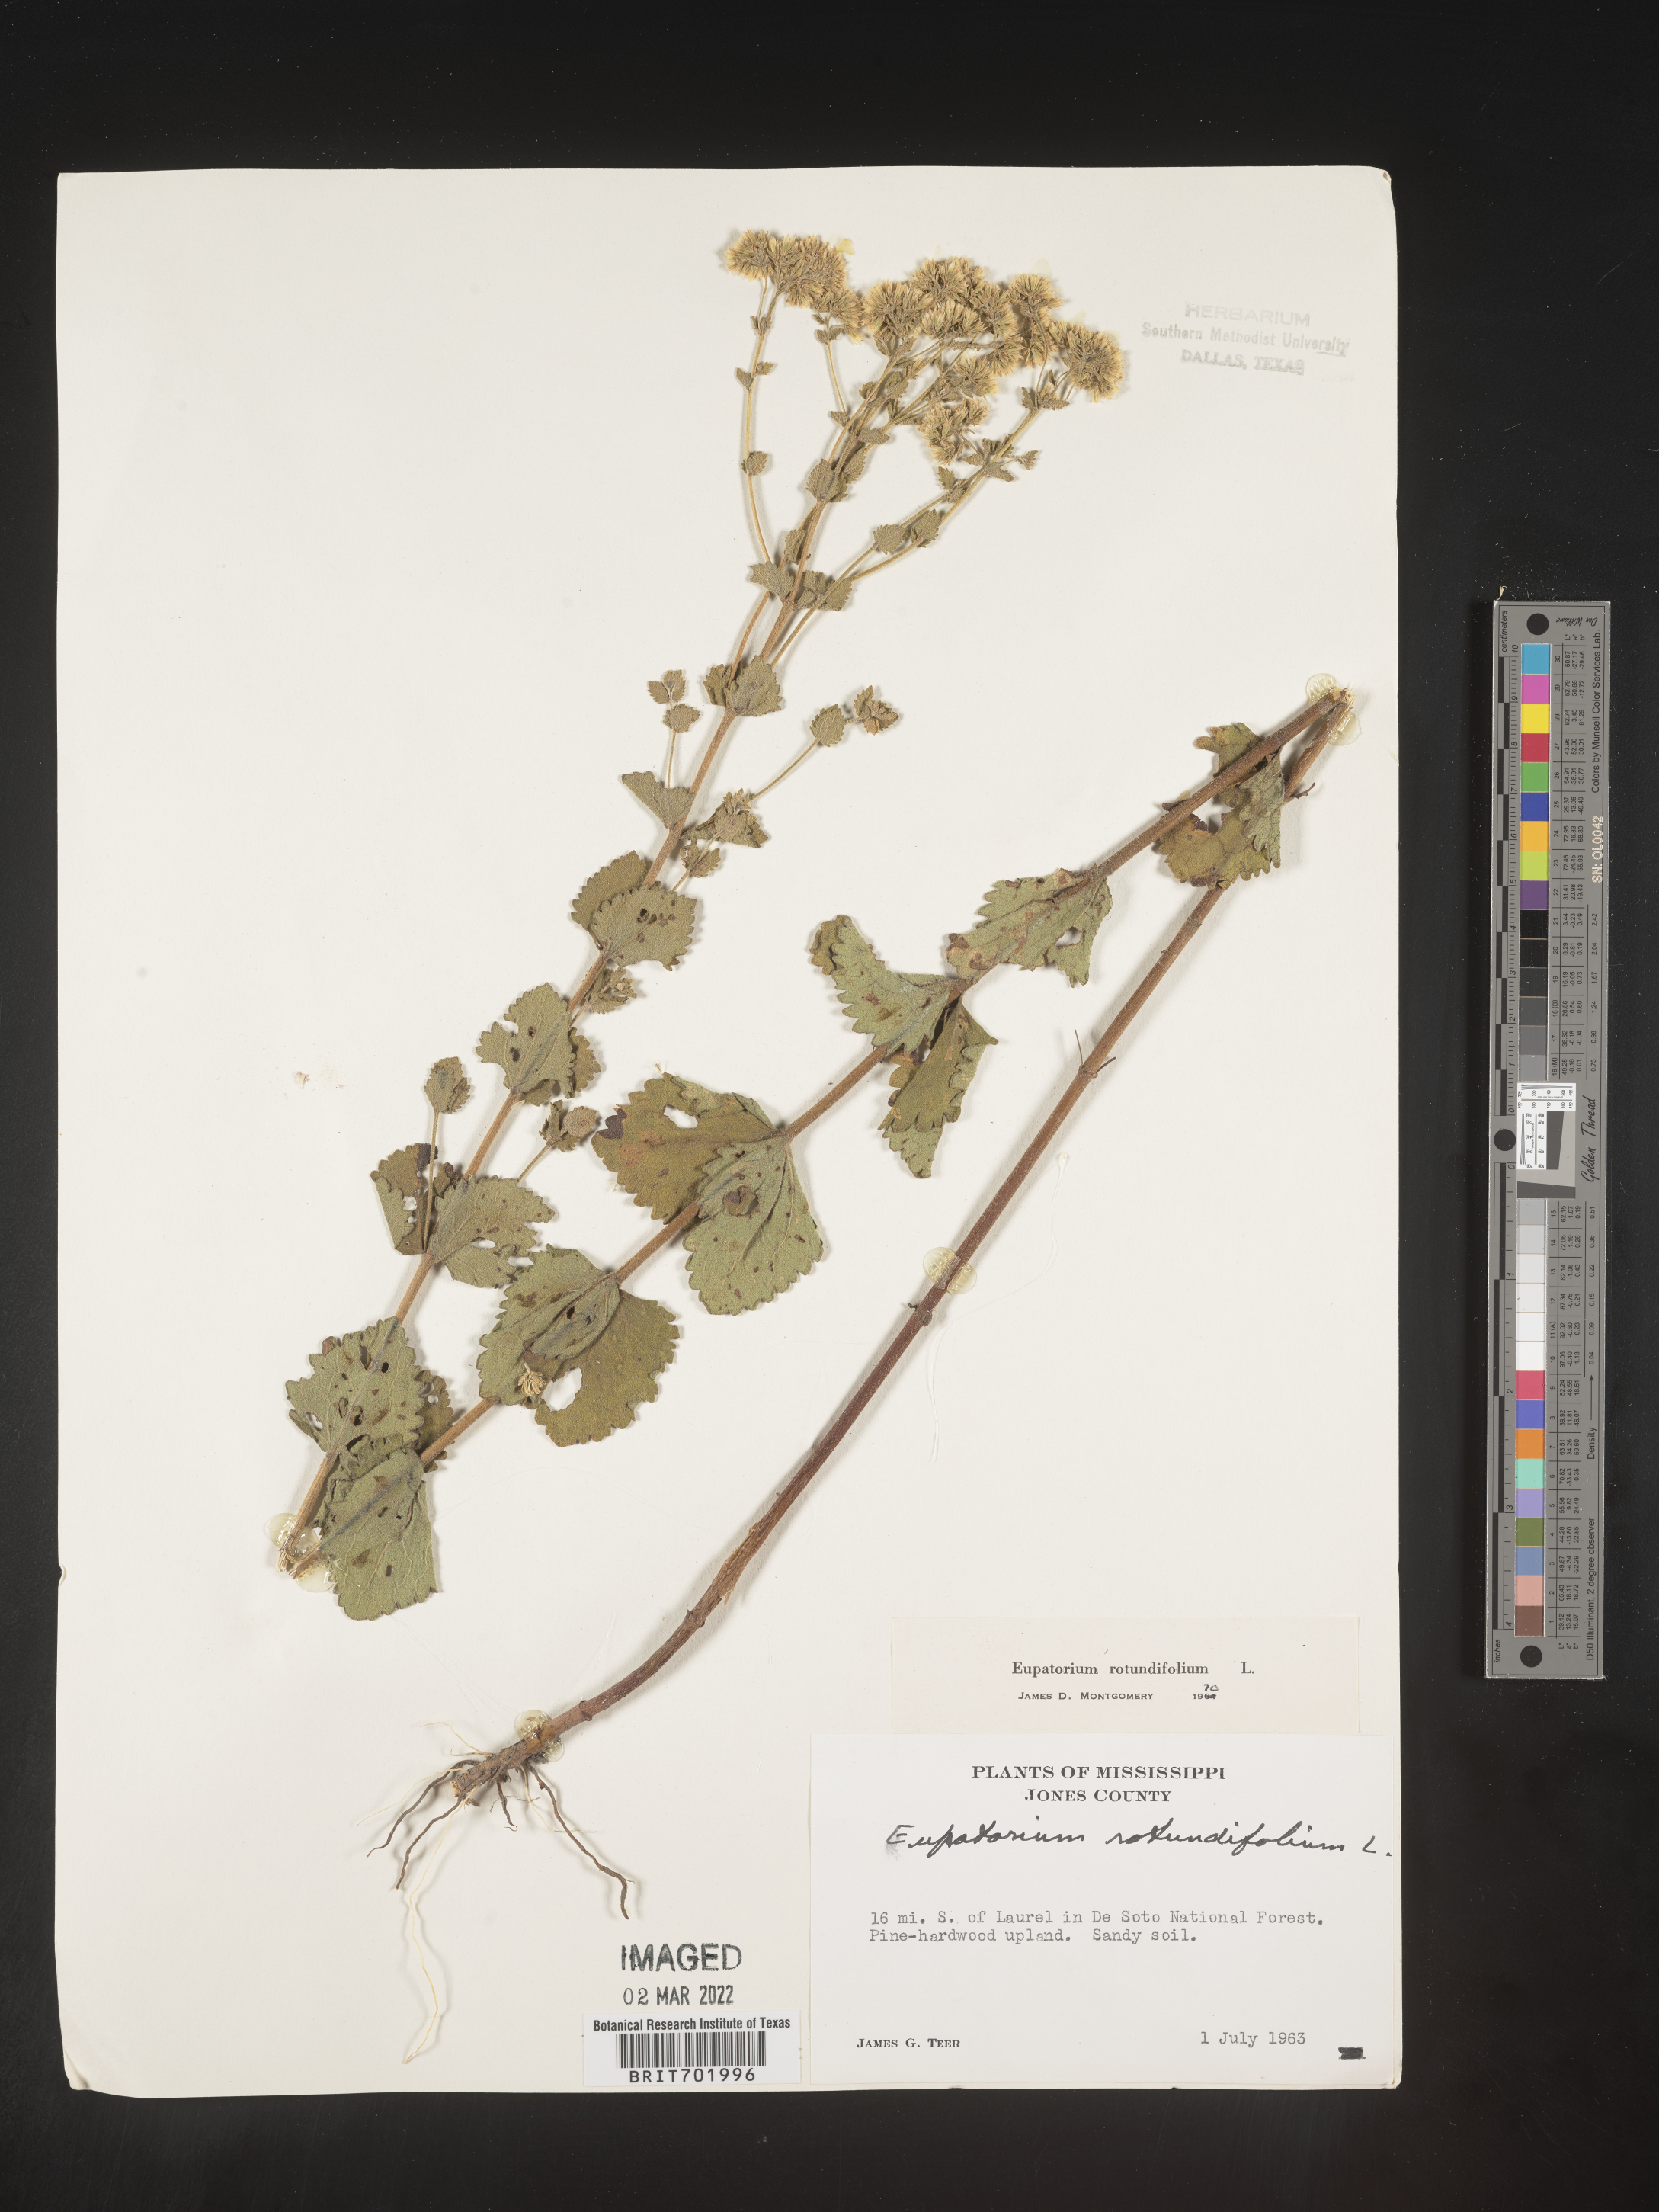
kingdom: Plantae
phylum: Tracheophyta
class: Magnoliopsida
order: Asterales
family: Asteraceae
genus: Eupatorium
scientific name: Eupatorium rotundifolium
